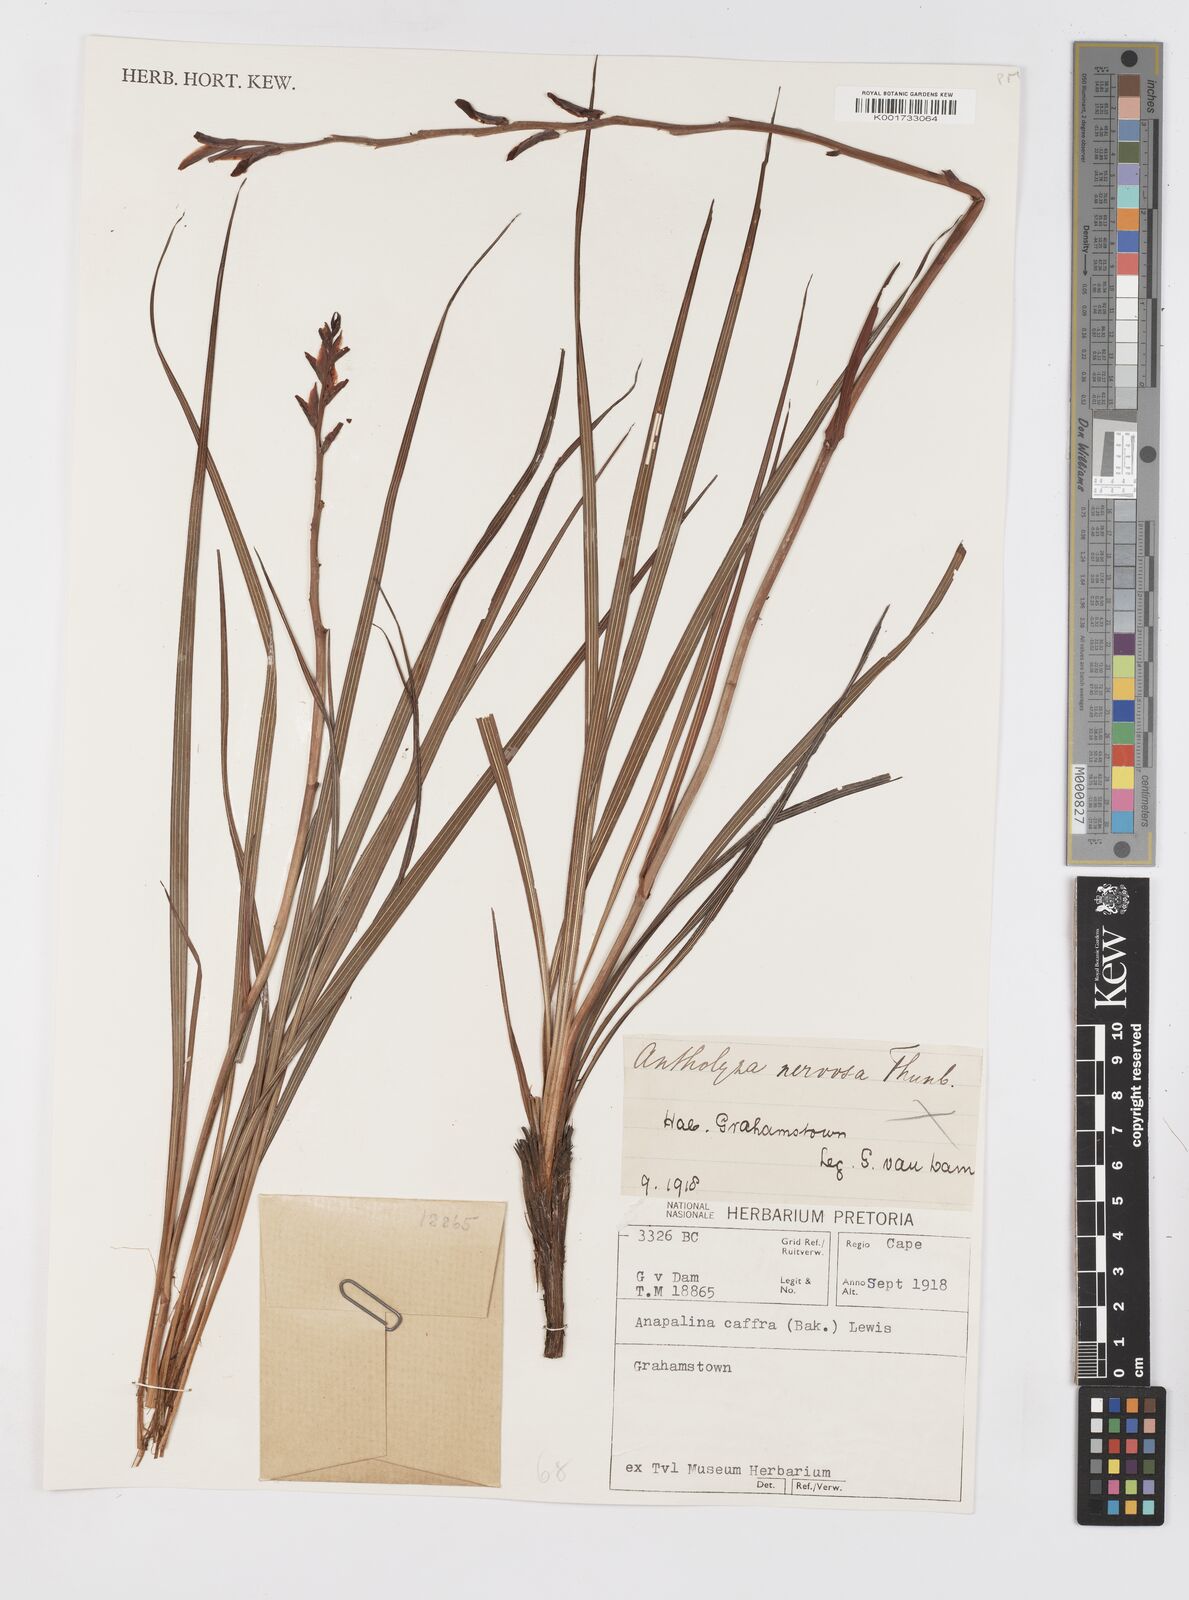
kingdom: Plantae
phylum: Tracheophyta
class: Liliopsida
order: Asparagales
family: Iridaceae
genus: Tritoniopsis
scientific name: Tritoniopsis caffra
